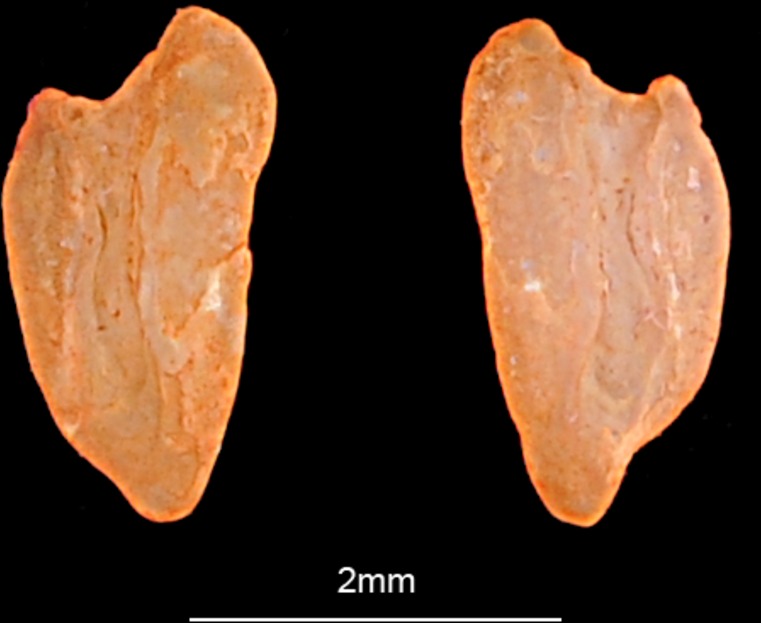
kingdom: Animalia
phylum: Chordata
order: Perciformes
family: Labridae
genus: Coris
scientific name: Coris julis
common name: Rainbow wrasse
